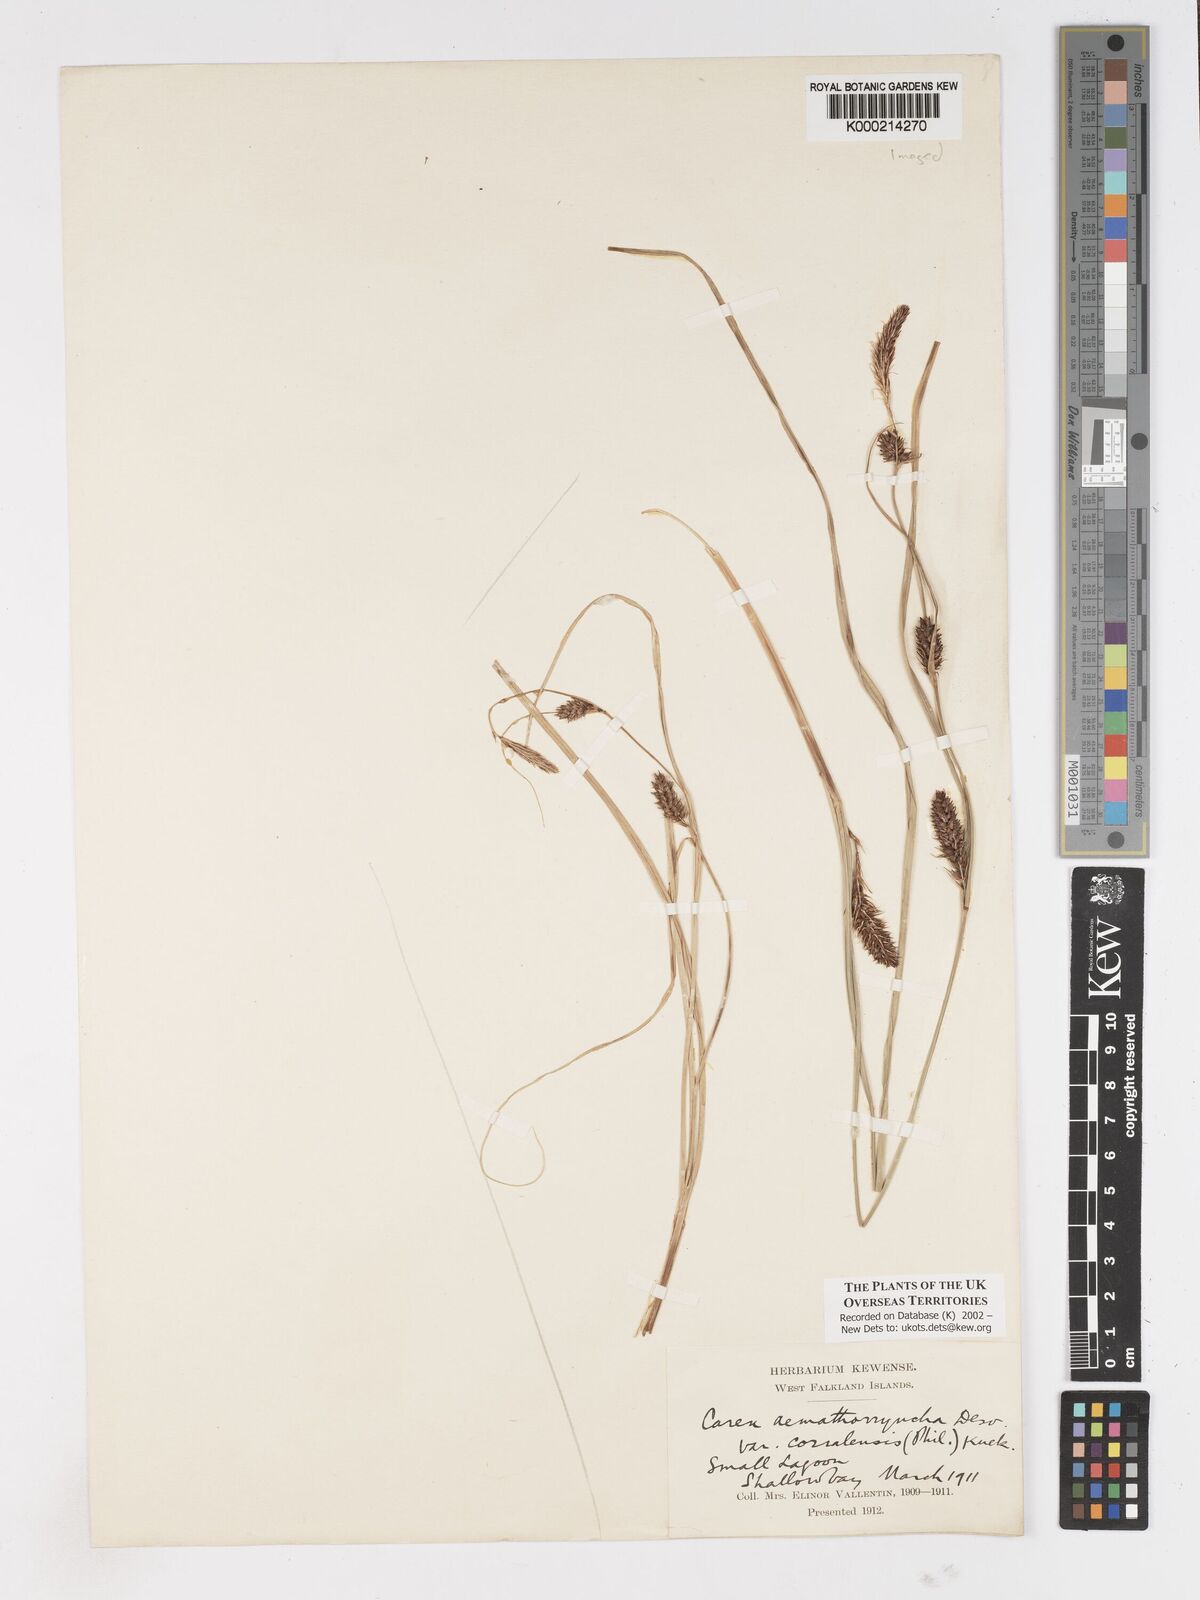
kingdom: Plantae
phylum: Tracheophyta
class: Liliopsida
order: Poales
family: Cyperaceae
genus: Carex
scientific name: Carex aematorhyncha
